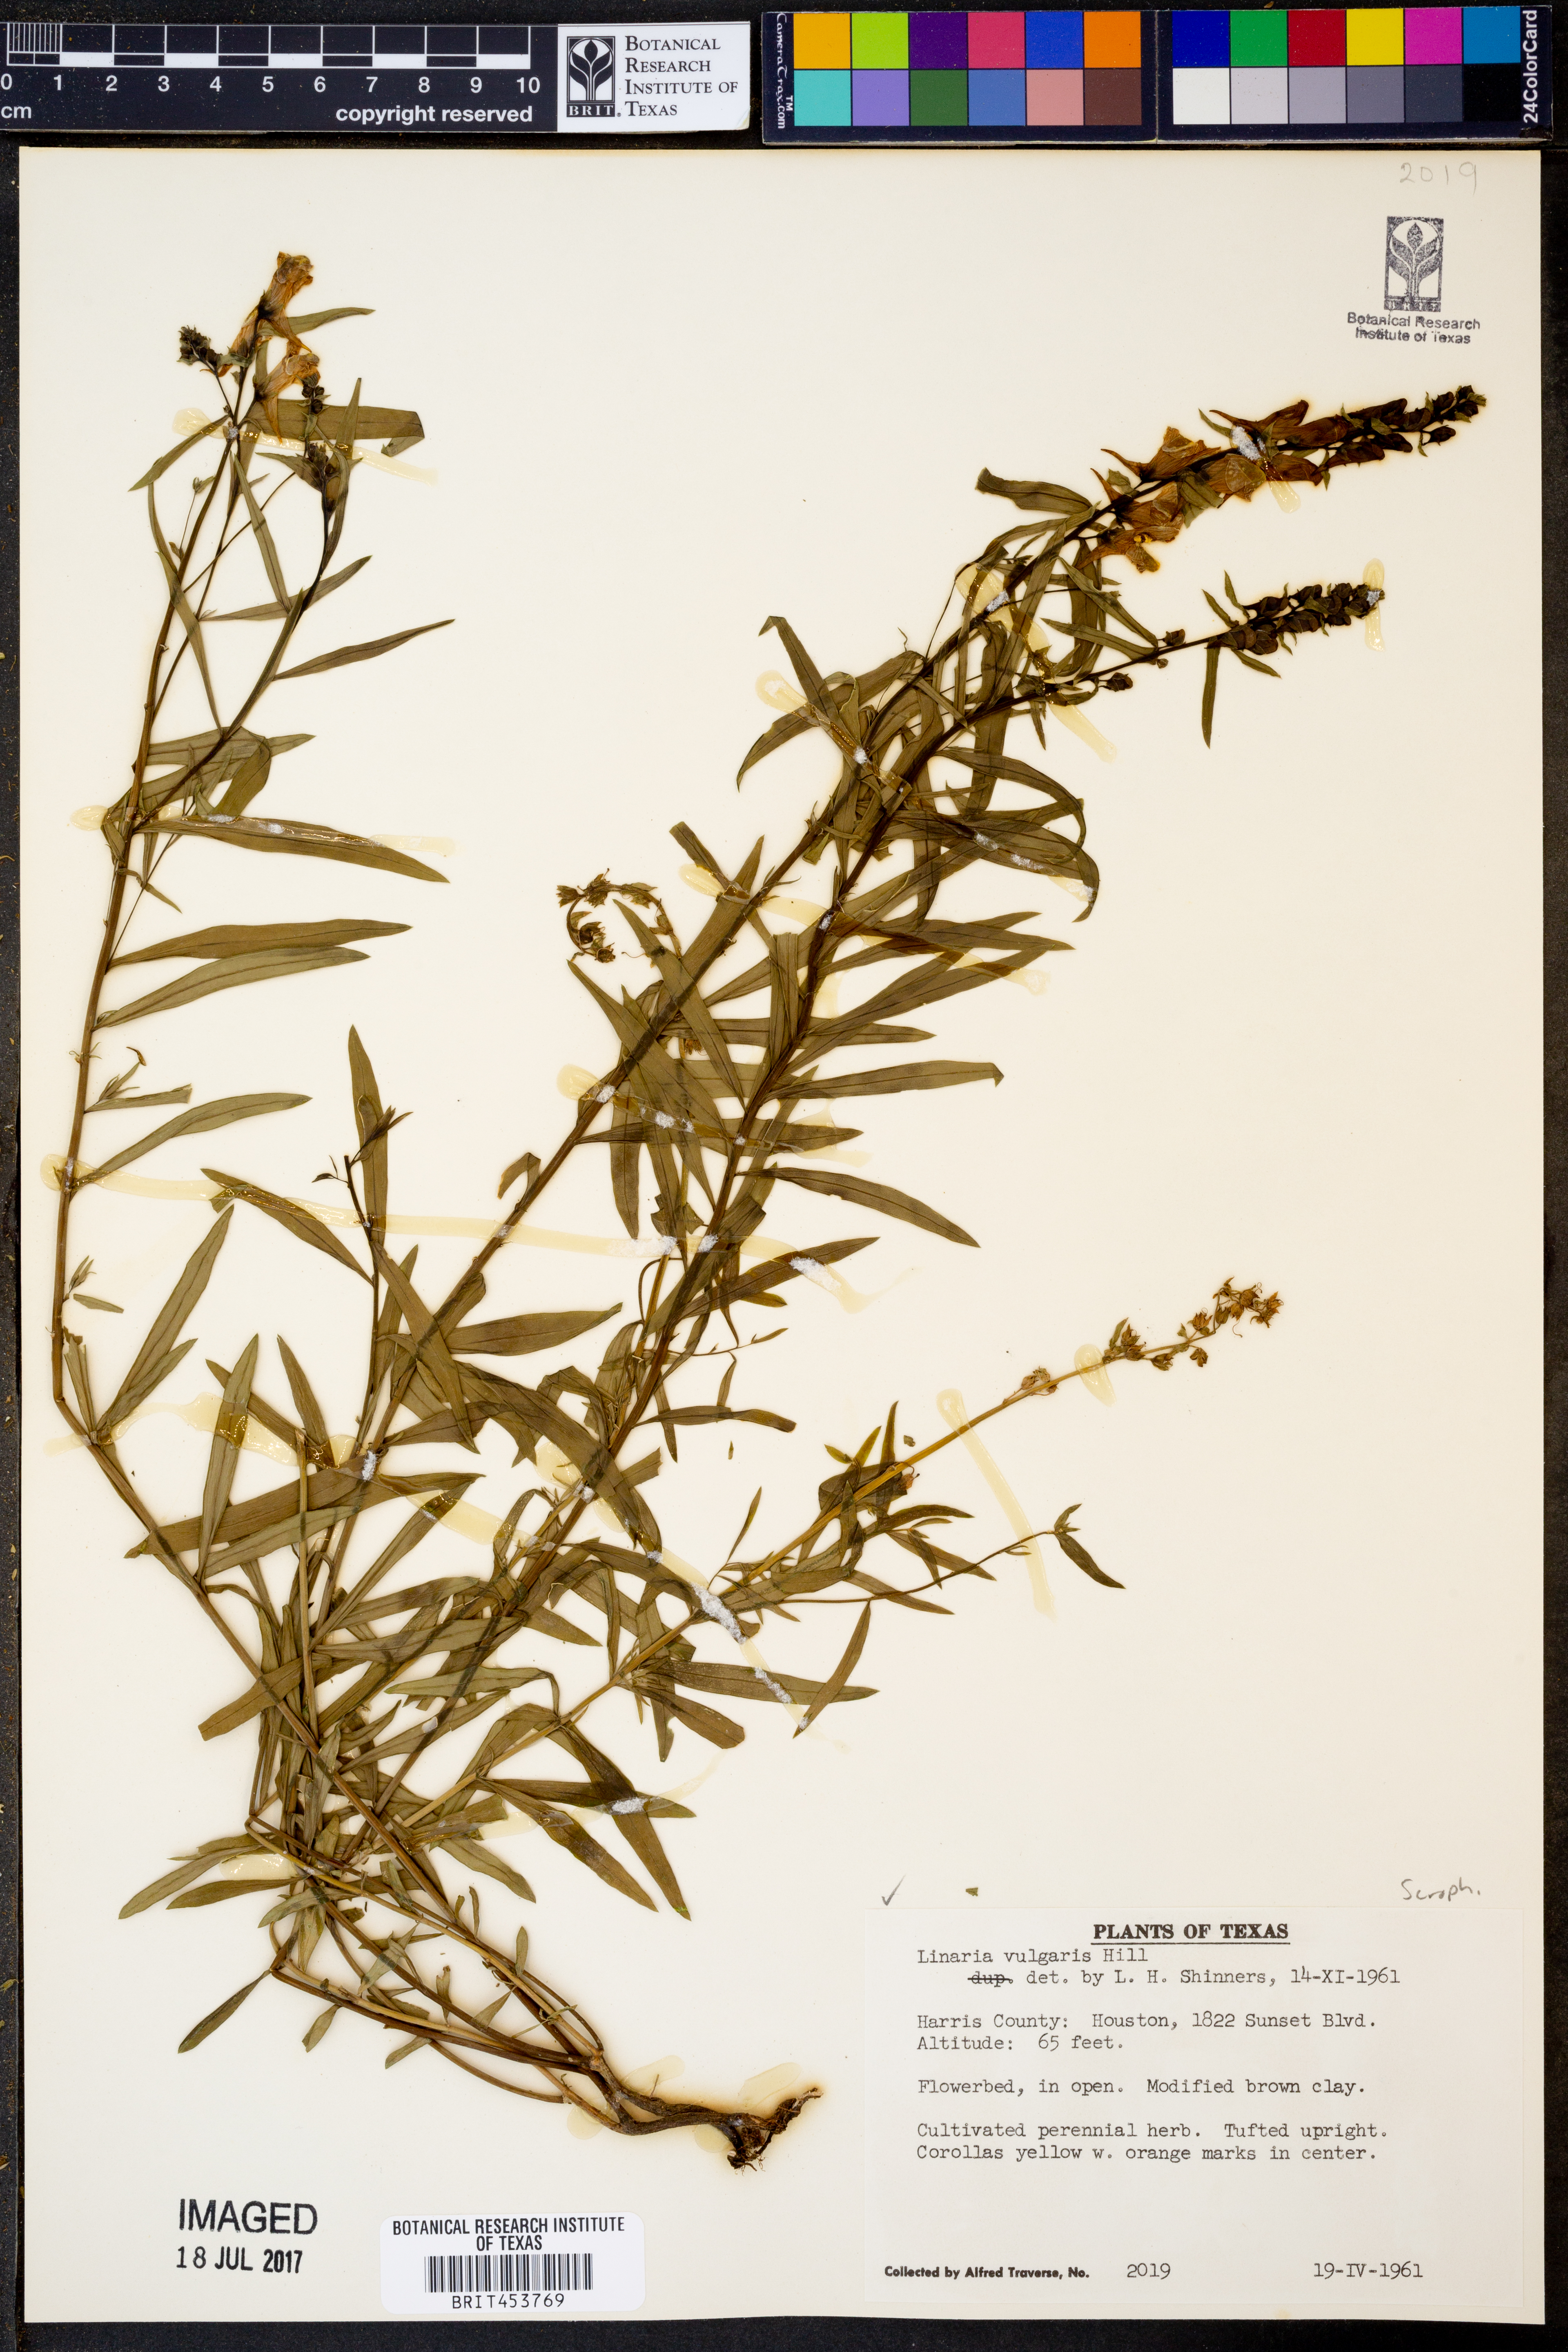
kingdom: Plantae
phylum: Tracheophyta
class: Magnoliopsida
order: Lamiales
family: Plantaginaceae
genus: Linaria
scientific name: Linaria vulgaris
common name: Butter and eggs
